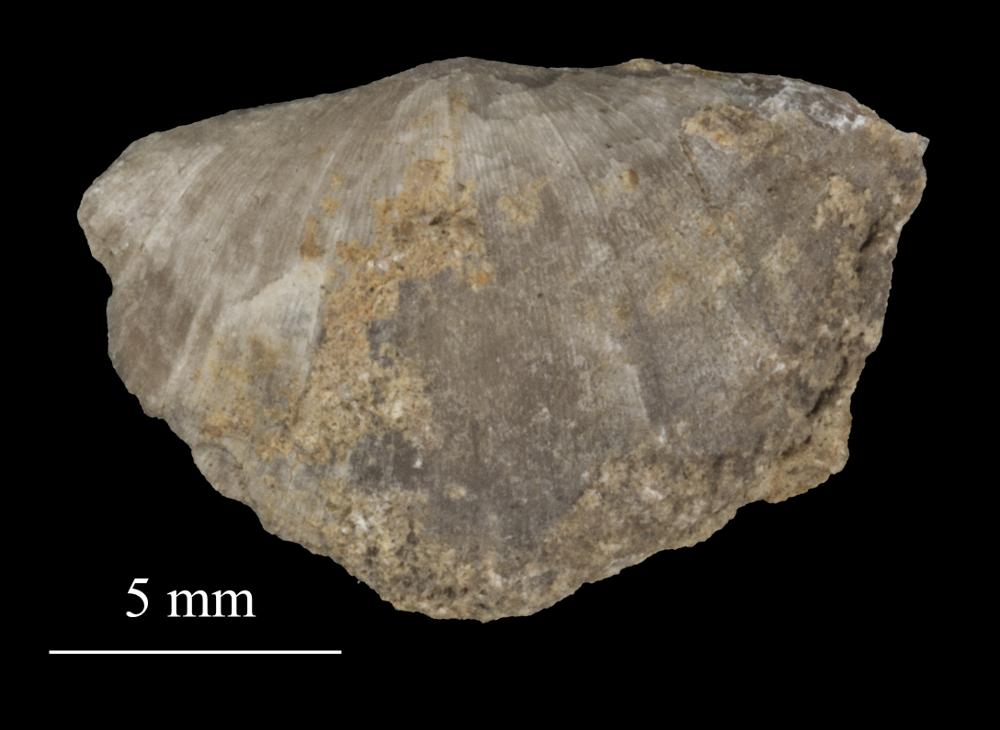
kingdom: Animalia
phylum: Brachiopoda
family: Sowerbyellidae
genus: Sowerbyella
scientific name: Sowerbyella
